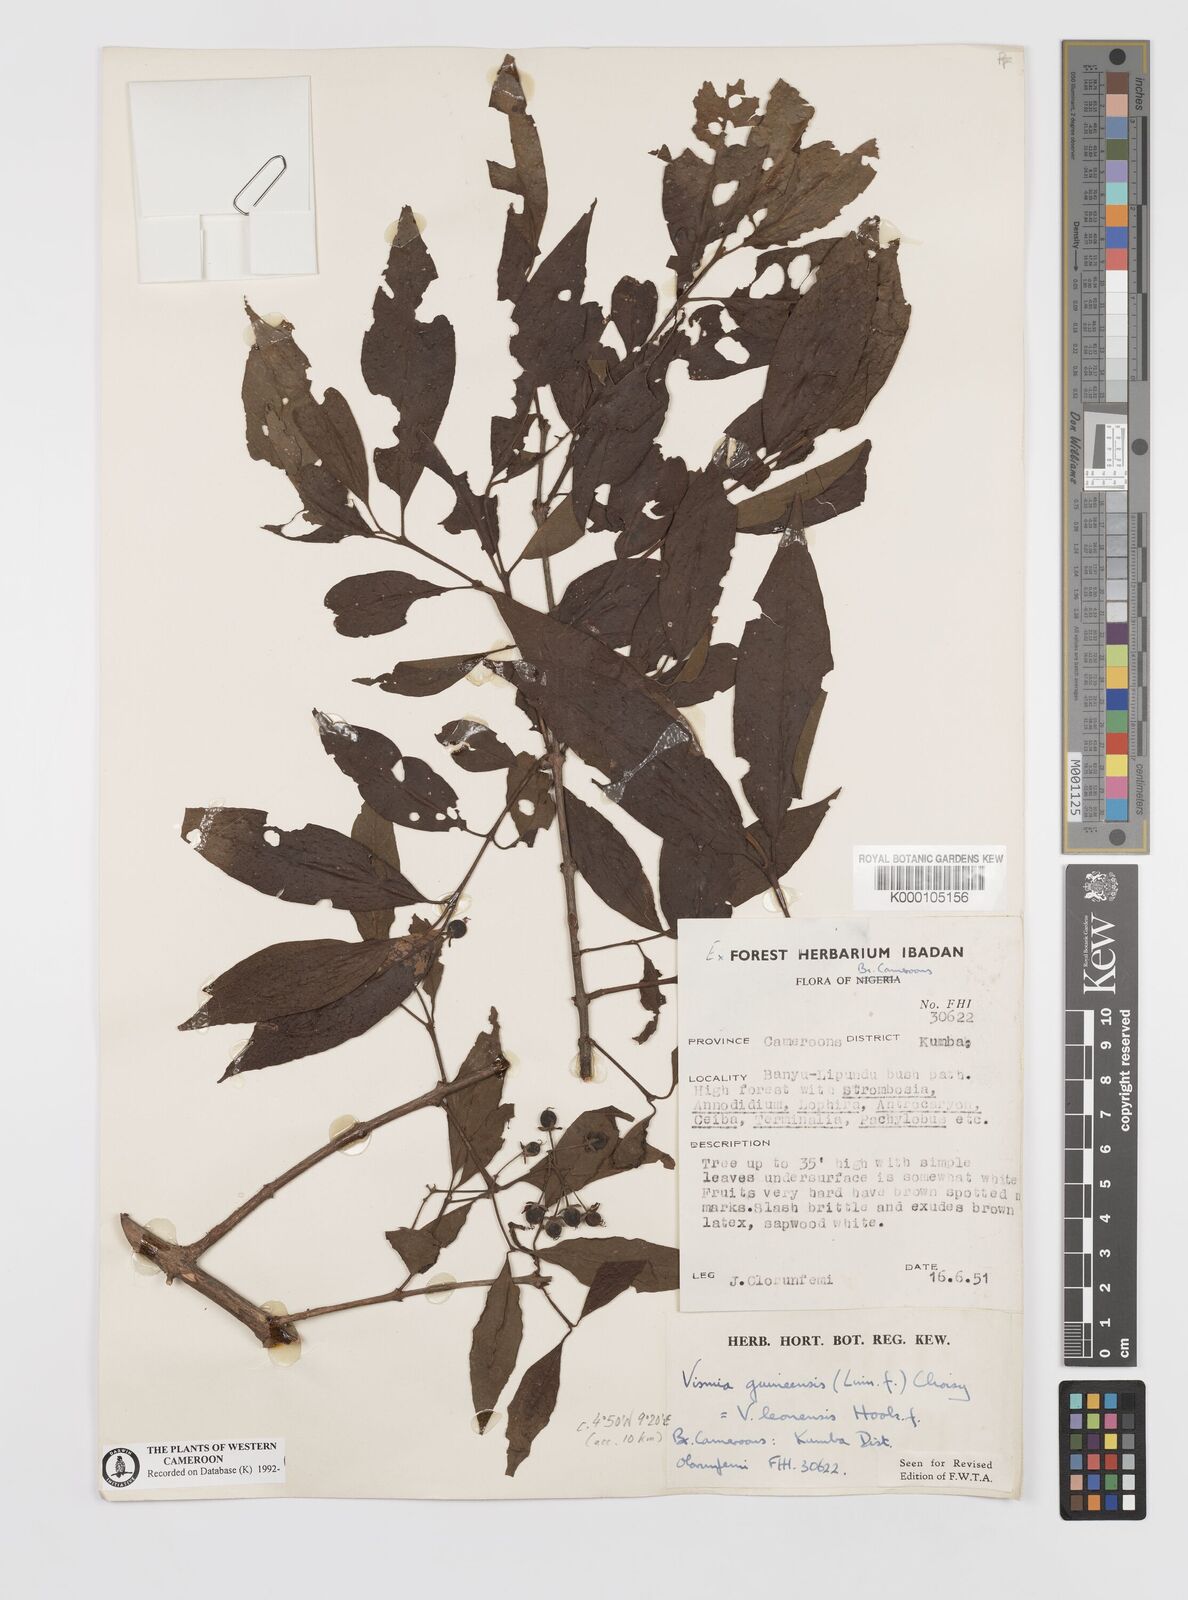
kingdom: Plantae
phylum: Tracheophyta
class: Magnoliopsida
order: Malpighiales
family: Hypericaceae
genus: Psorospermum
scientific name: Psorospermum guineense
